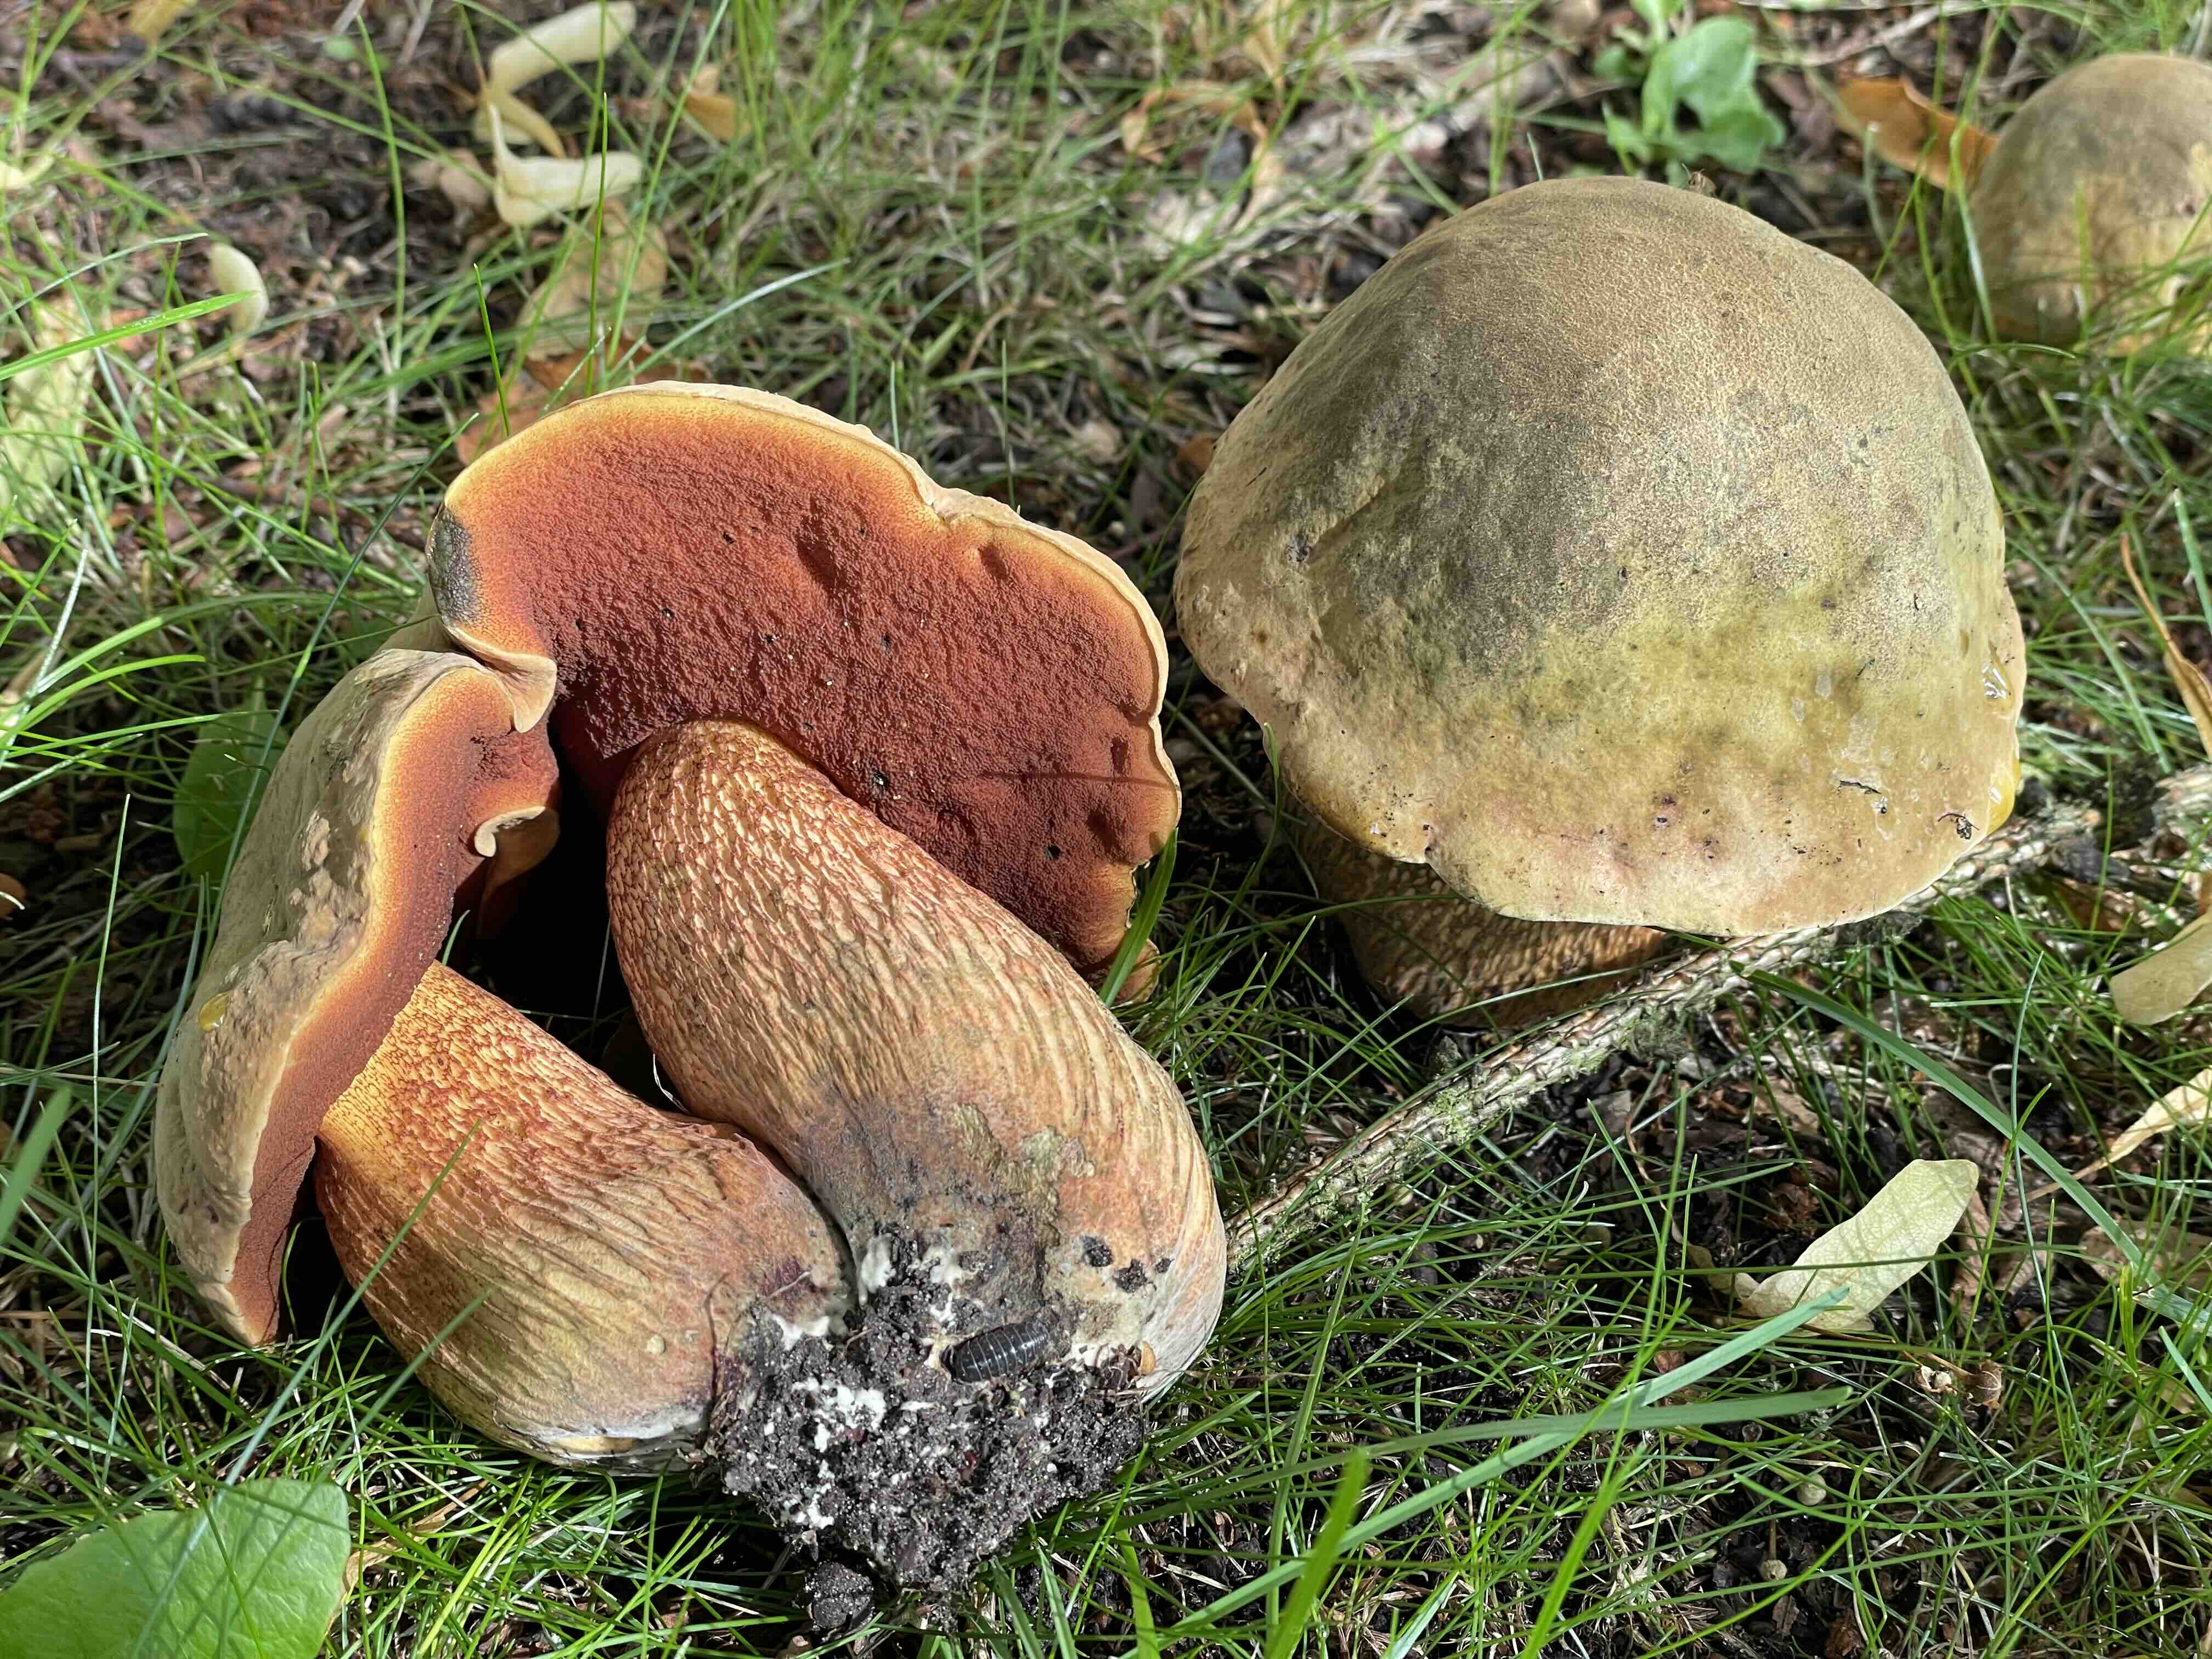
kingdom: Fungi
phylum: Basidiomycota
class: Agaricomycetes
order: Boletales
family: Boletaceae
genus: Suillellus
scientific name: Suillellus luridus
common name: netstokket indigorørhat
